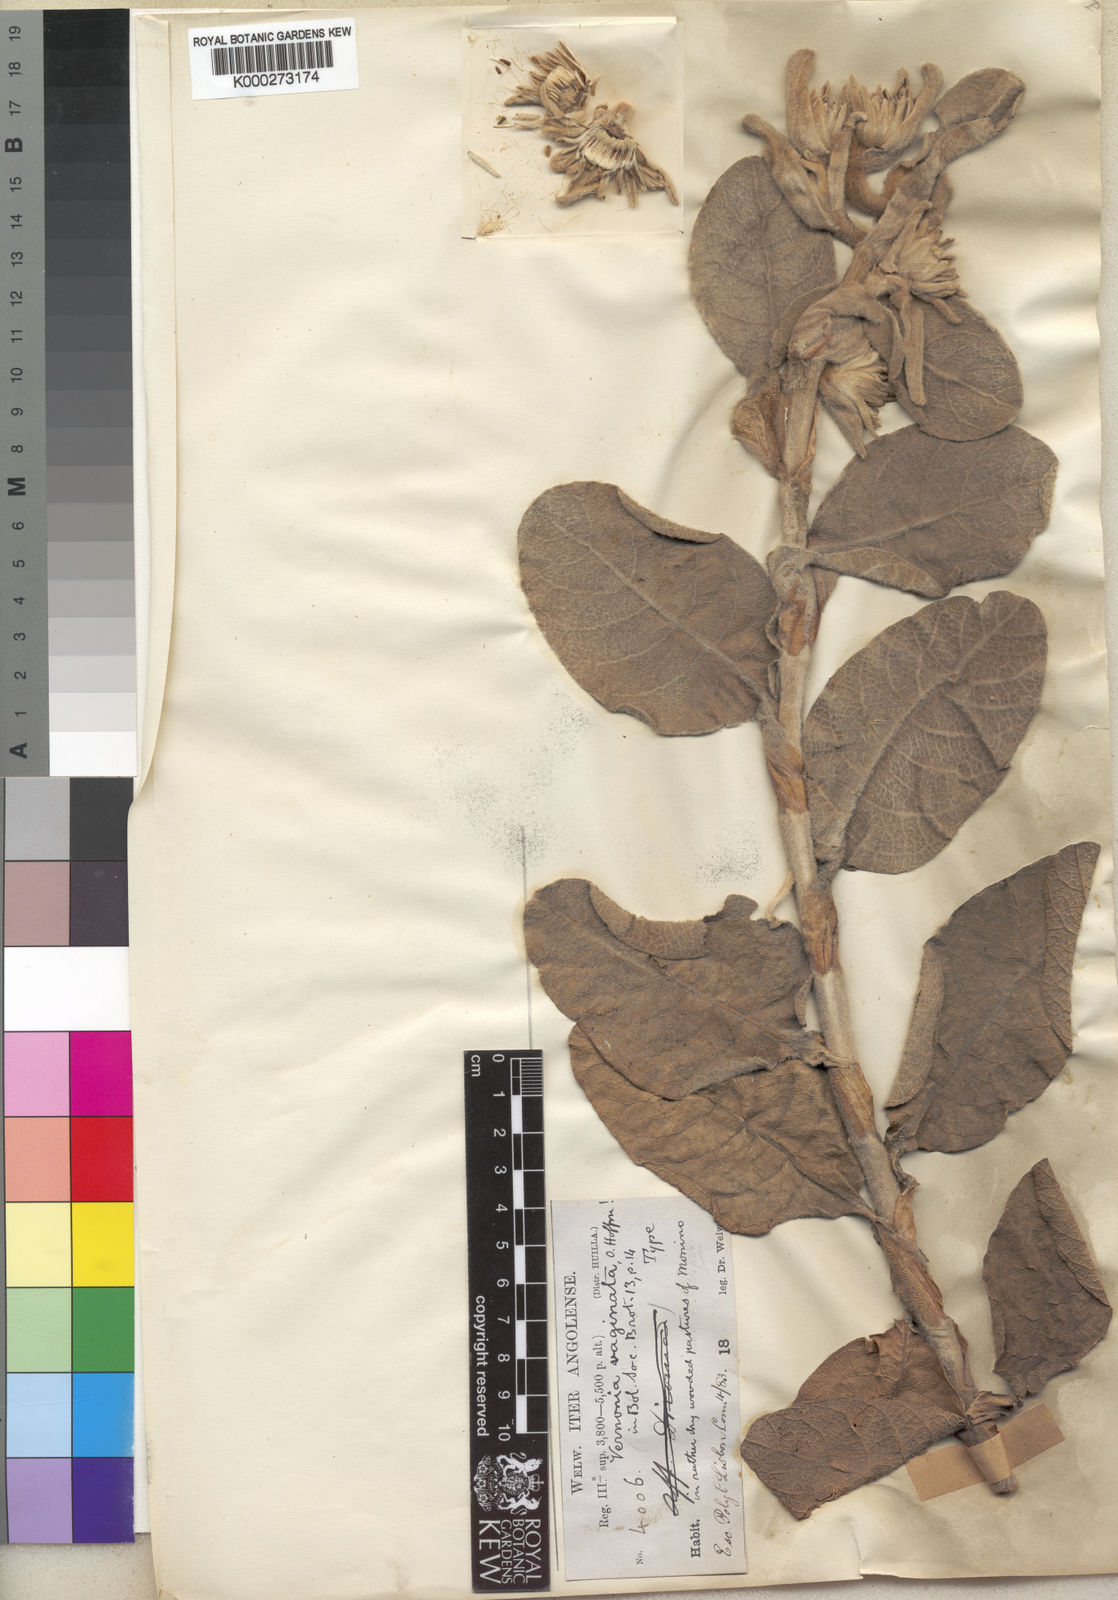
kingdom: Plantae
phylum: Tracheophyta
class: Magnoliopsida
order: Asterales
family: Asteraceae
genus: Vernonia
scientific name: Vernonia vaginata
